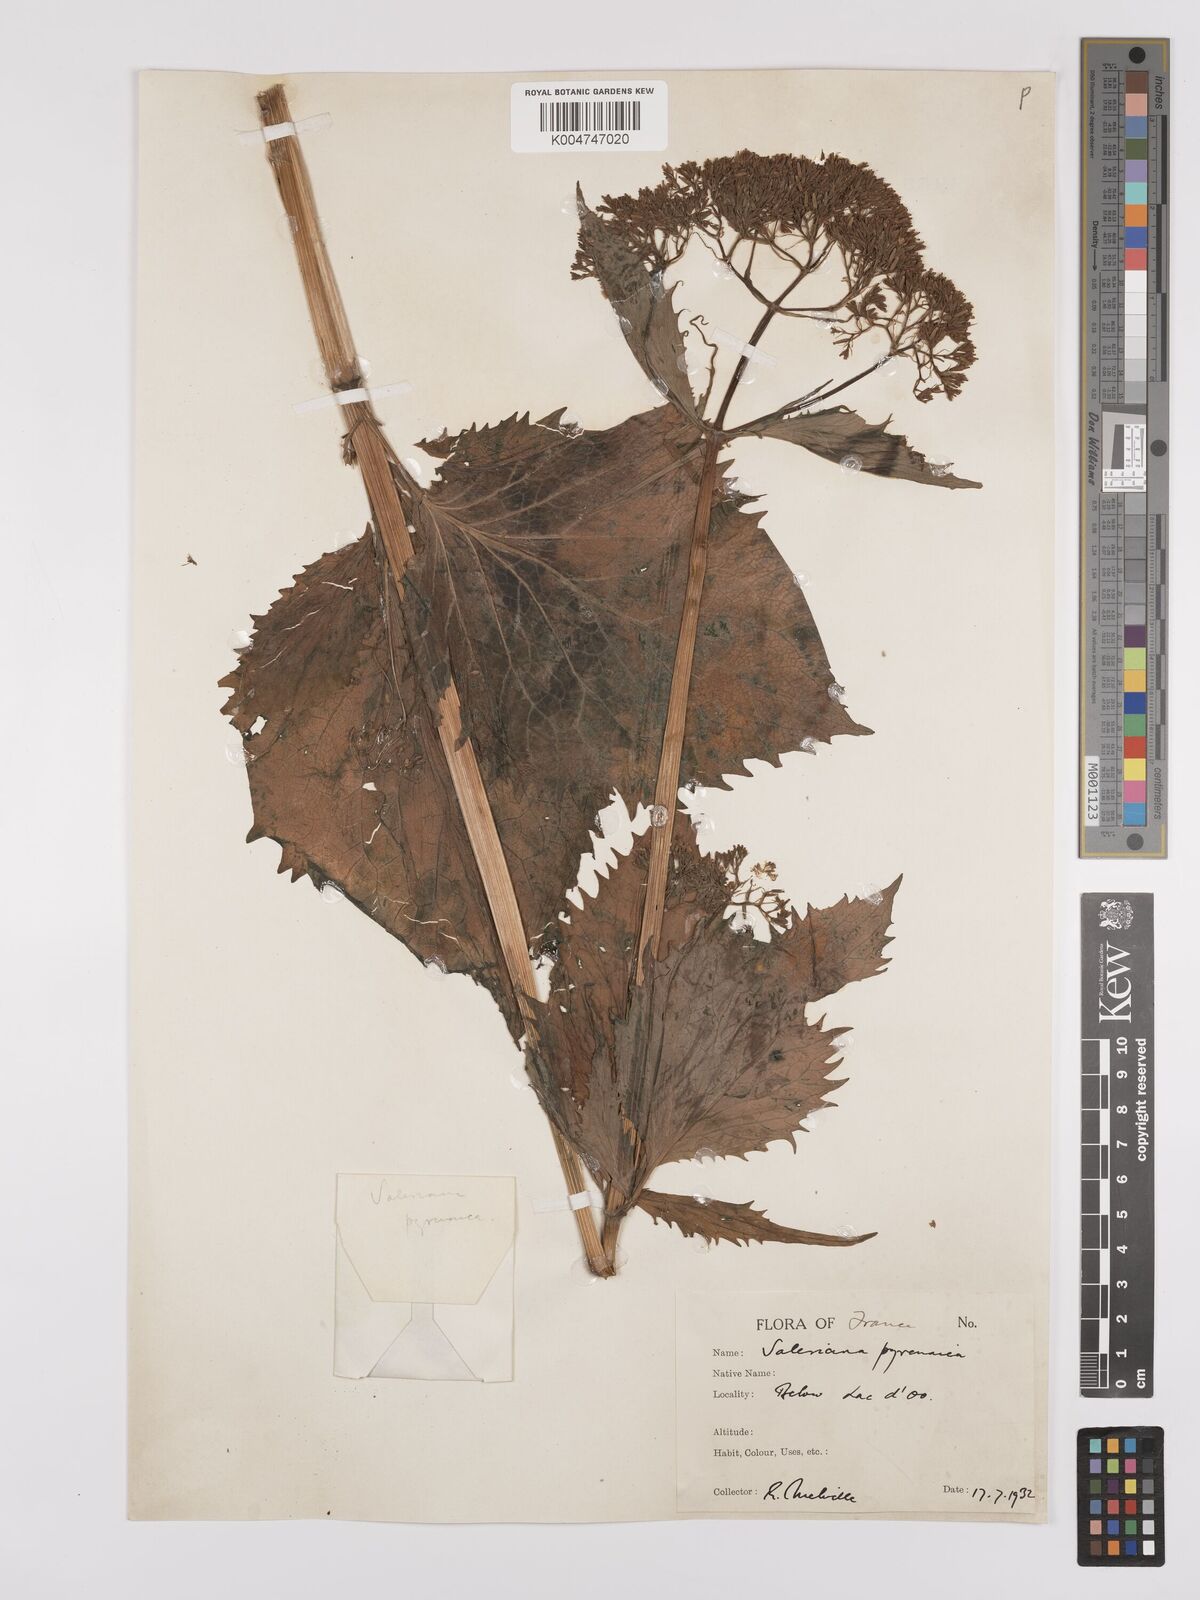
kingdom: Plantae
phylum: Tracheophyta
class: Magnoliopsida
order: Dipsacales
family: Caprifoliaceae
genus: Valeriana
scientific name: Valeriana pyrenaica
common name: Pyrenean valerian
